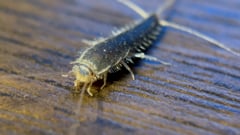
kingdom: Animalia
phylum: Arthropoda
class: Insecta
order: Zygentoma
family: Lepismatidae
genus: Ctenolepisma
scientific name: Ctenolepisma longicaudatum
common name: Silverfish
